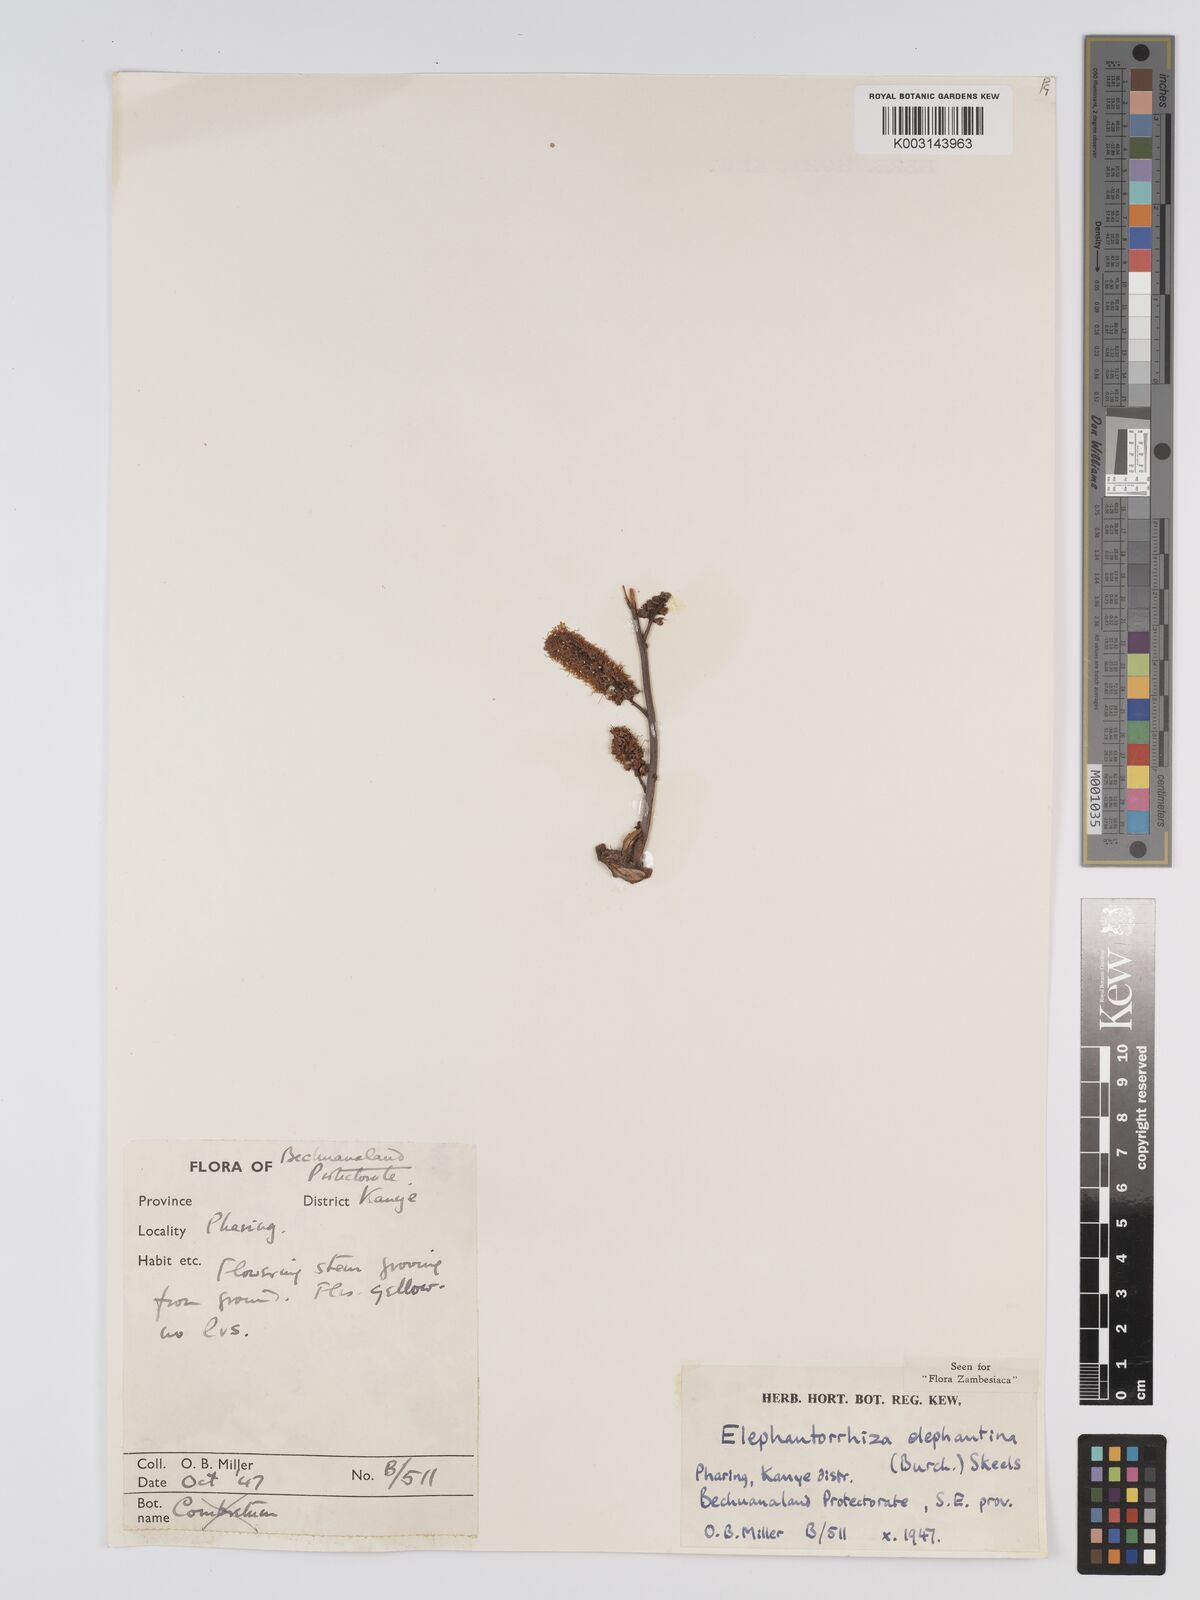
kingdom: Plantae
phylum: Tracheophyta
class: Magnoliopsida
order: Fabales
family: Fabaceae
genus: Elephantorrhiza
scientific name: Elephantorrhiza elephantina
